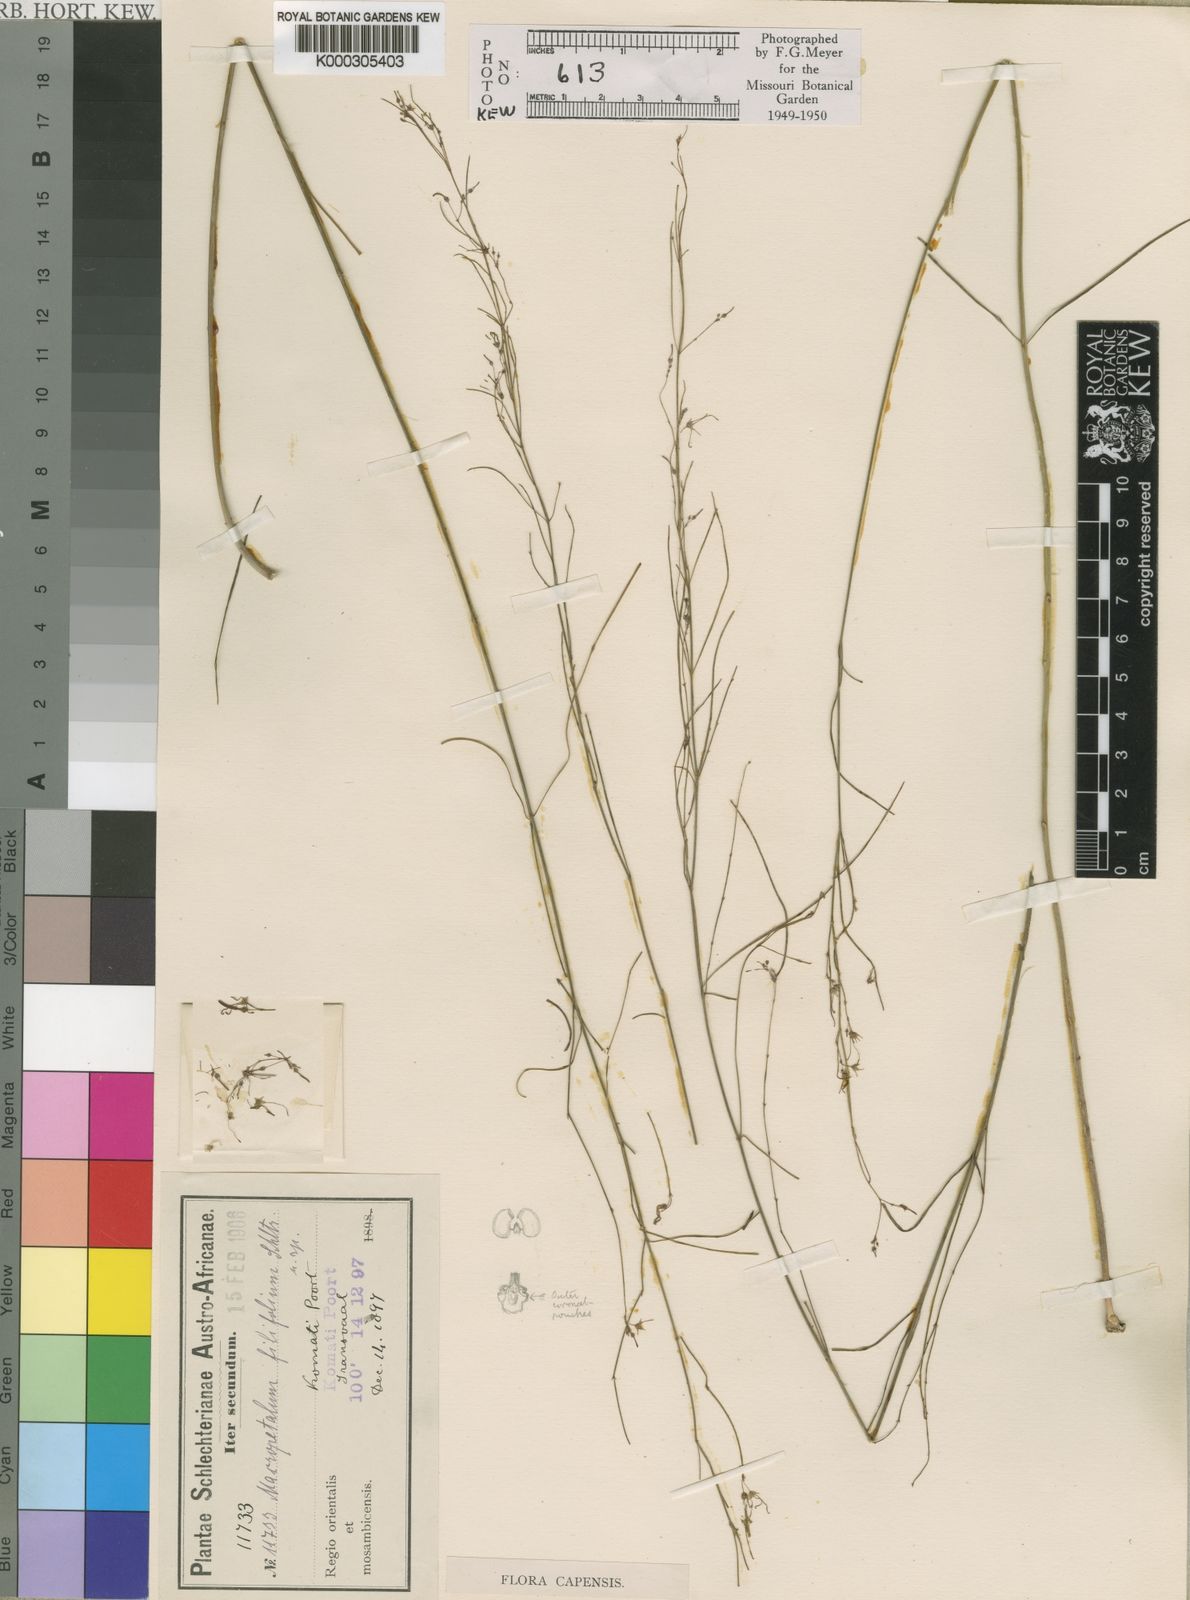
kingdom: Plantae
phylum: Tracheophyta
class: Magnoliopsida
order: Gentianales
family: Apocynaceae
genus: Ceropegia
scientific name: Ceropegia filifolia
